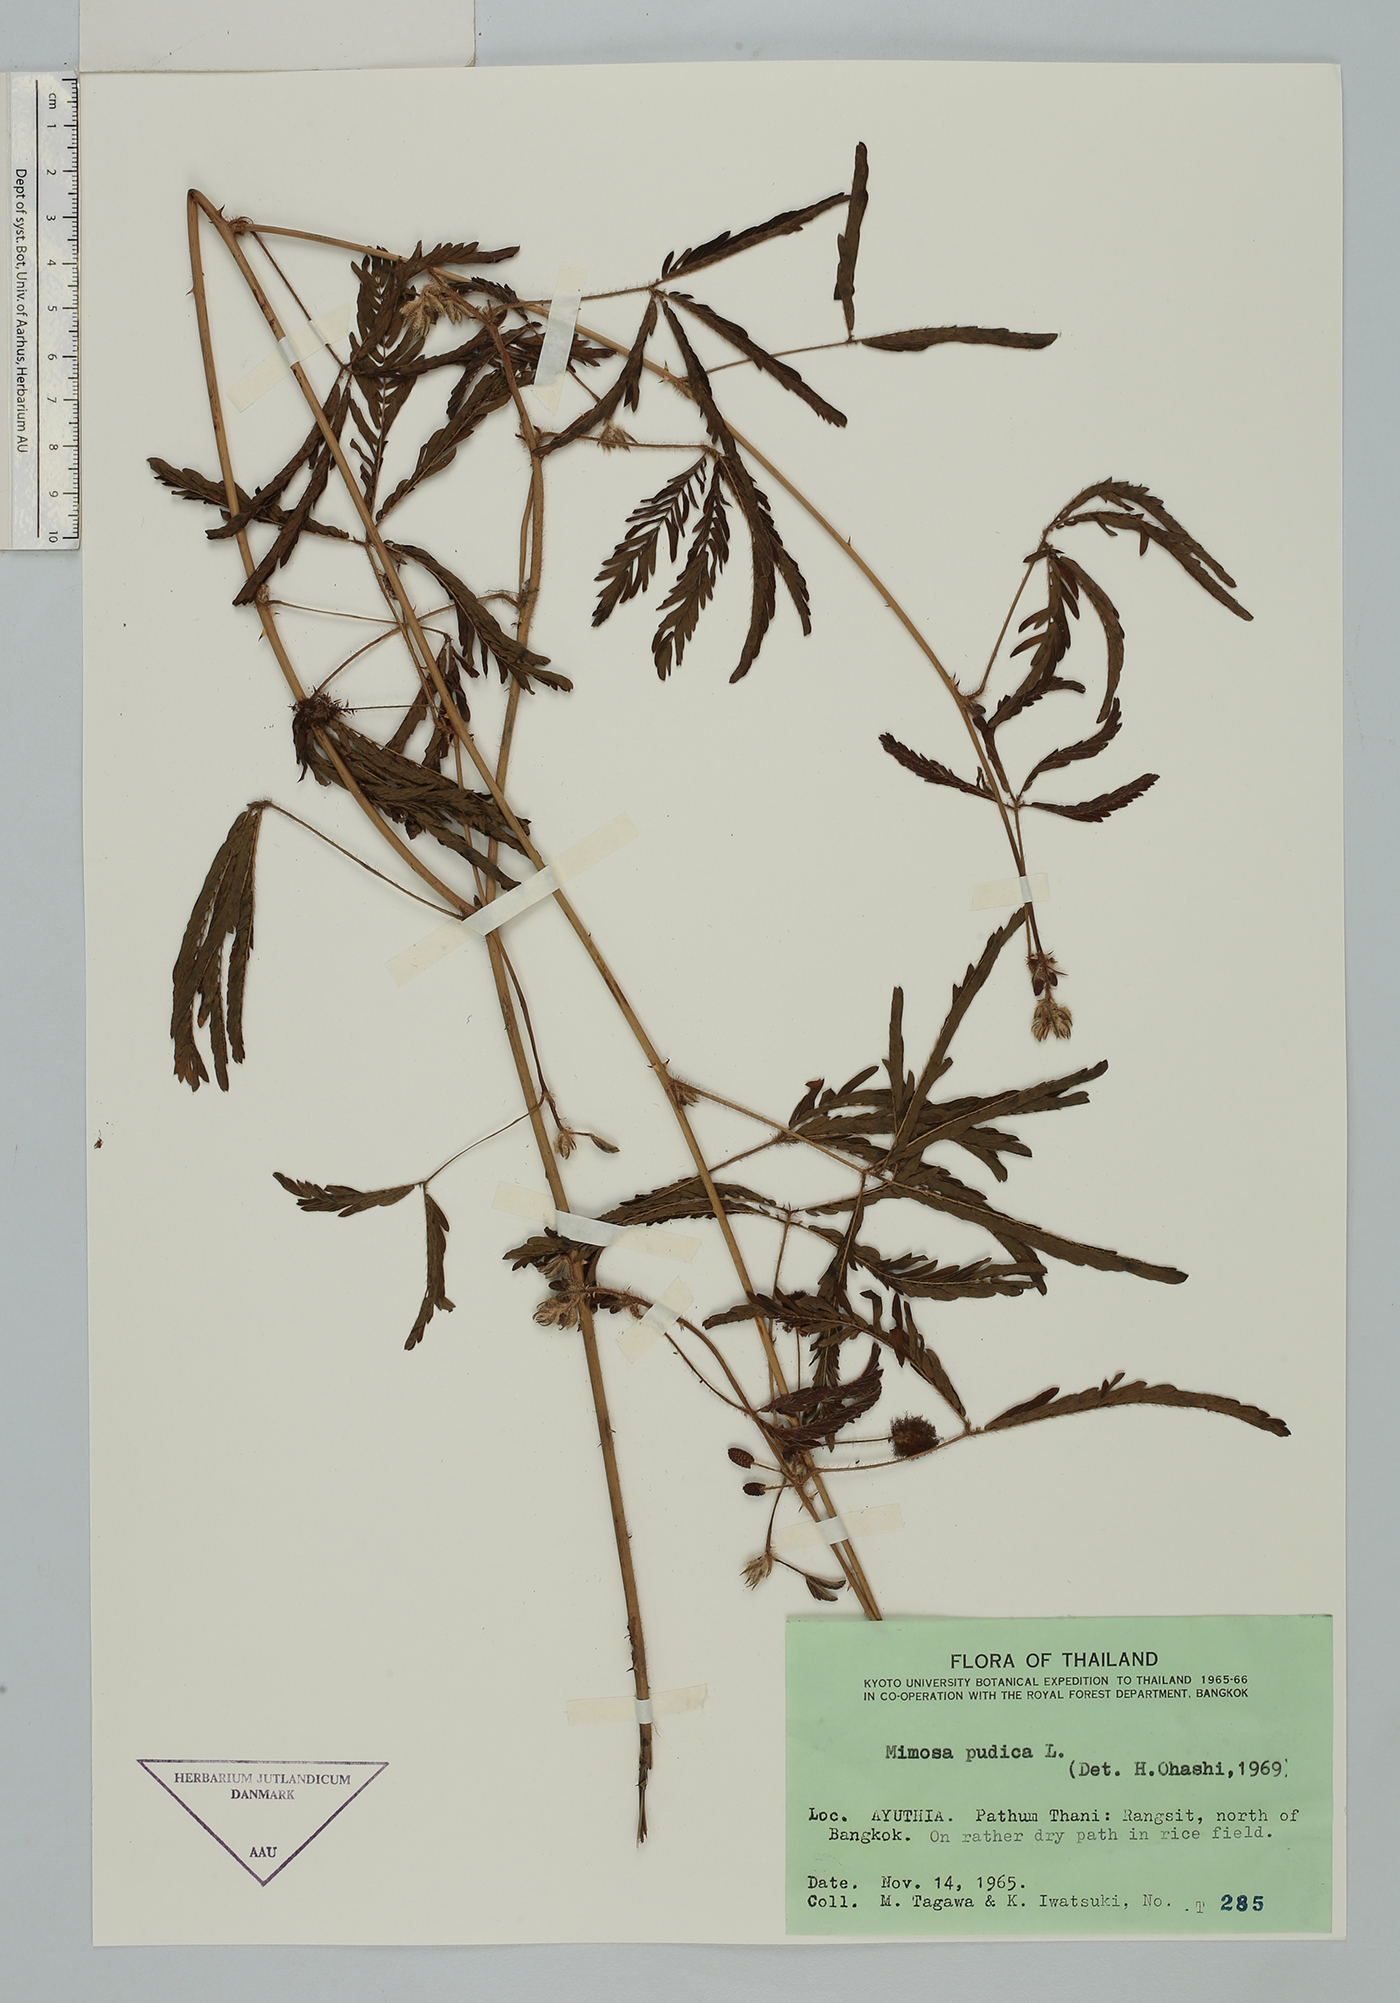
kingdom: Plantae
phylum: Tracheophyta
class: Magnoliopsida
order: Fabales
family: Fabaceae
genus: Mimosa
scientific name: Mimosa pudica
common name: Sensitive plant
